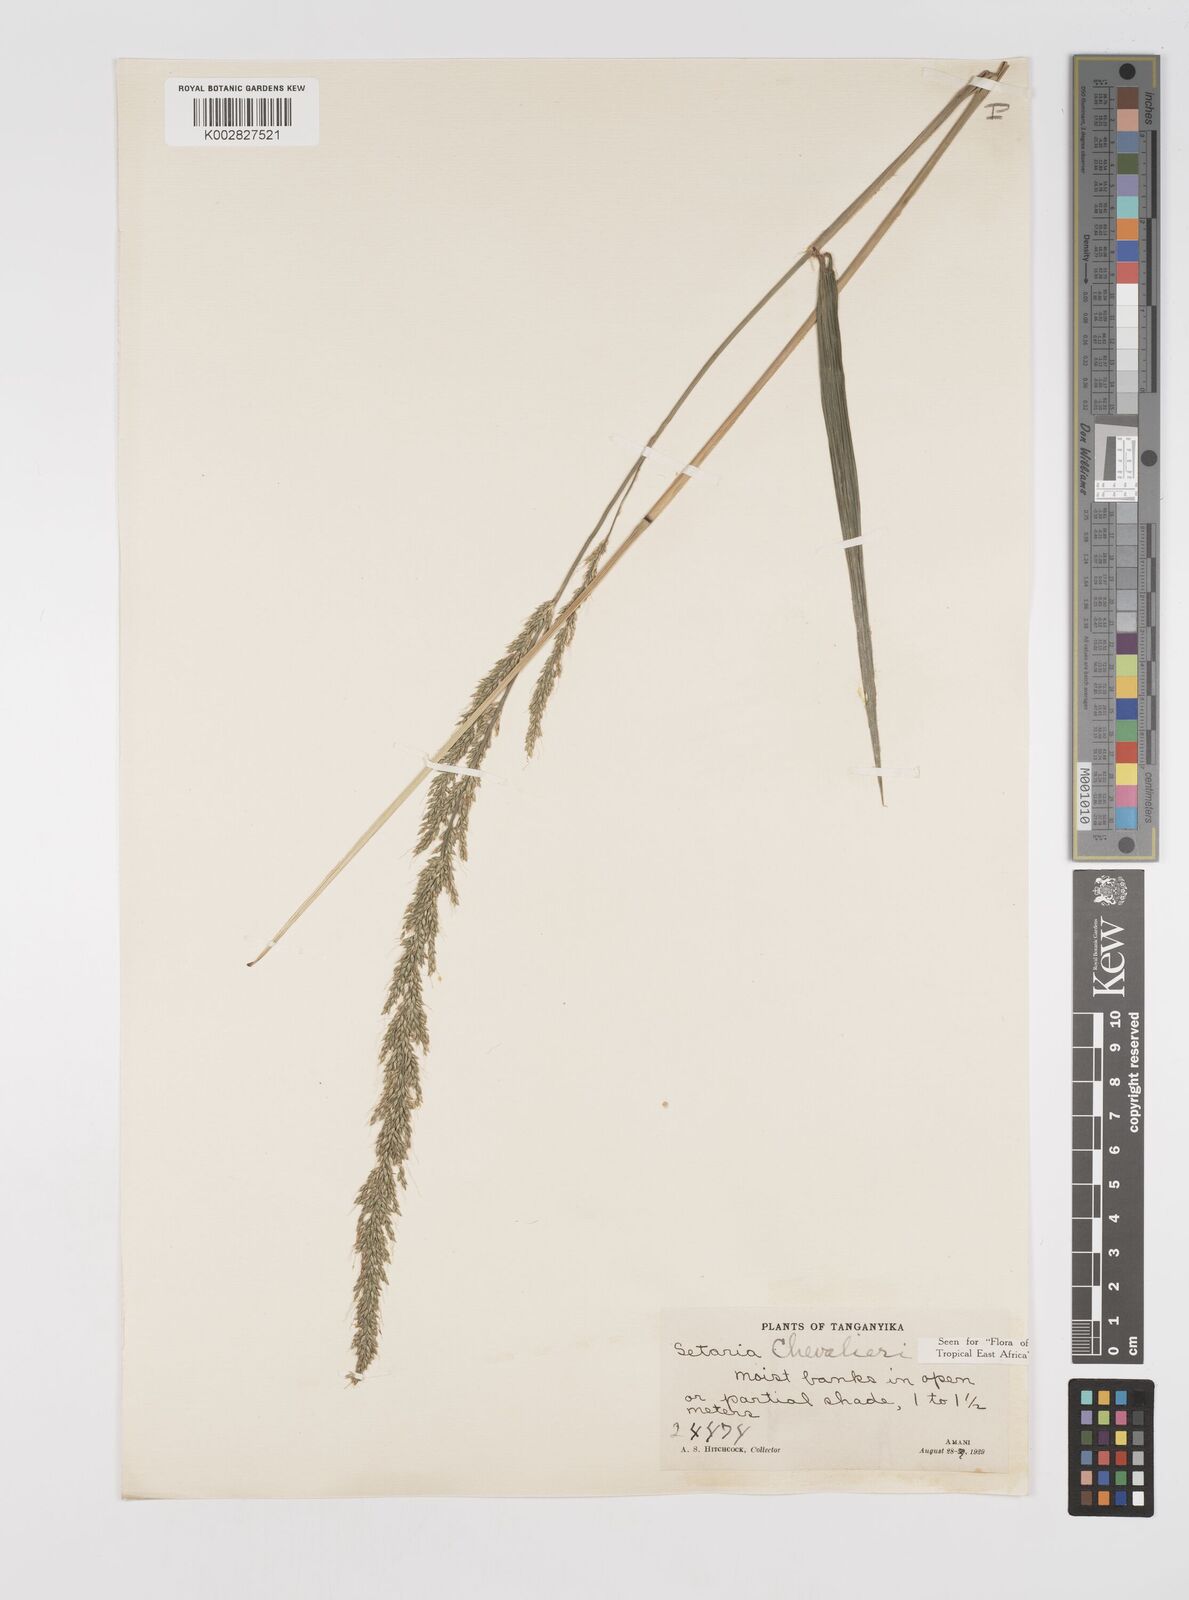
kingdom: Plantae
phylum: Tracheophyta
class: Liliopsida
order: Poales
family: Poaceae
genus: Setaria
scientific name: Setaria megaphylla
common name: Bigleaf bristlegrass
